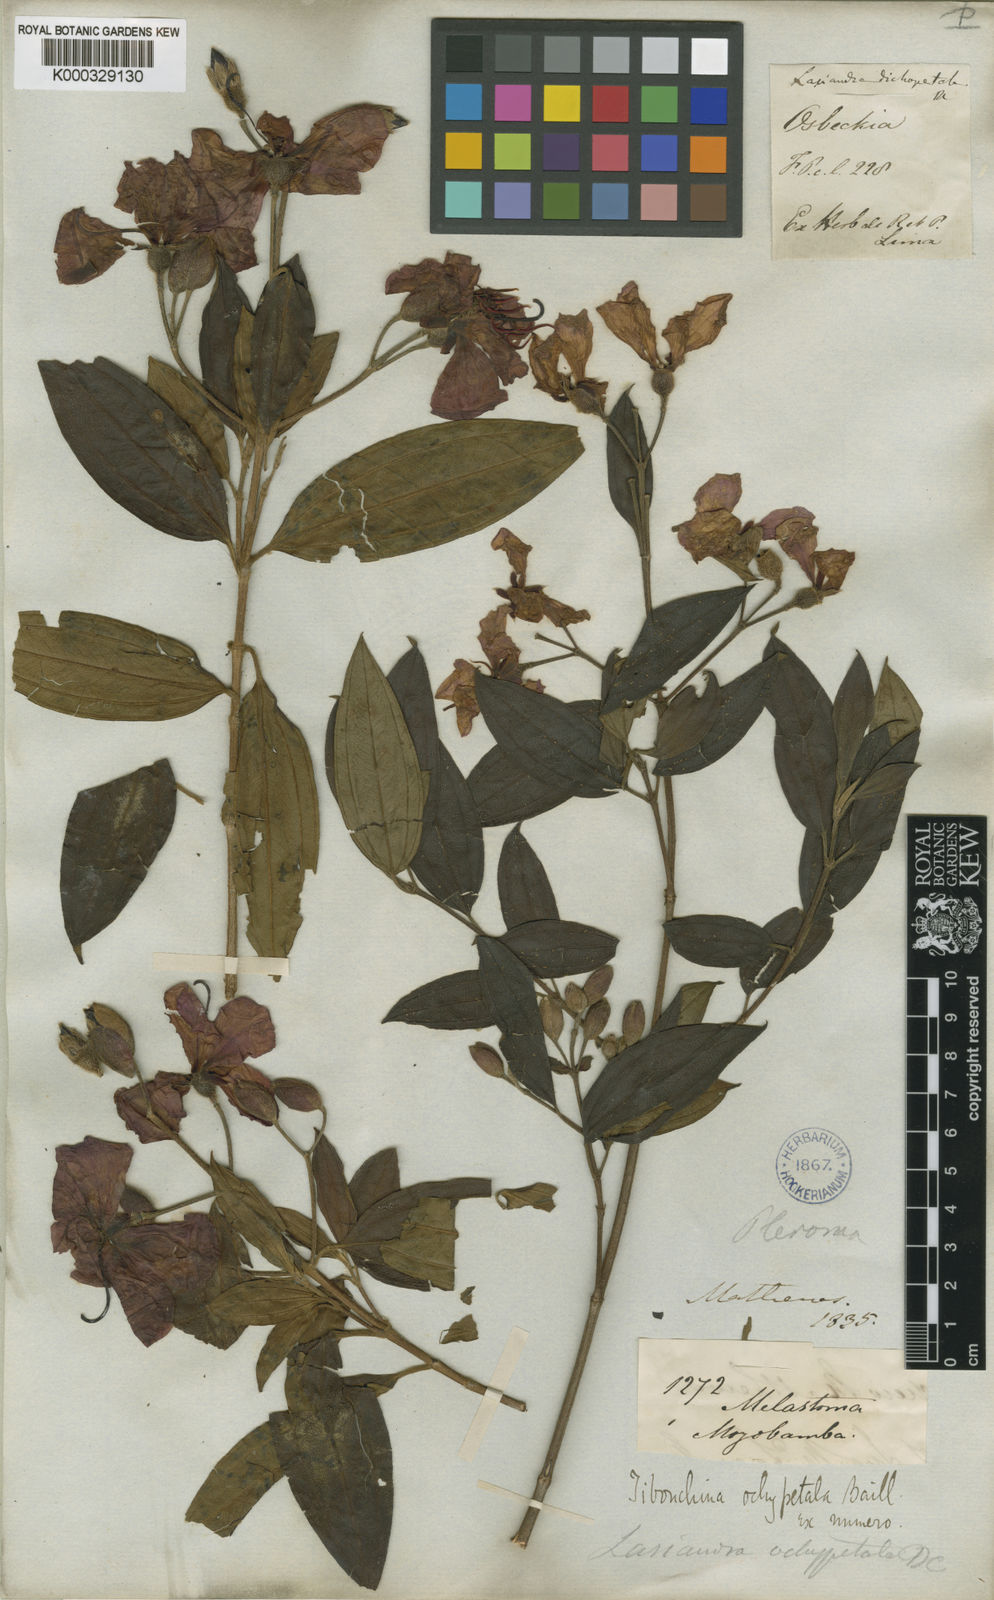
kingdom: Plantae
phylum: Tracheophyta
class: Magnoliopsida
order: Myrtales
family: Melastomataceae
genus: Pleroma
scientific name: Pleroma ochypetalum
